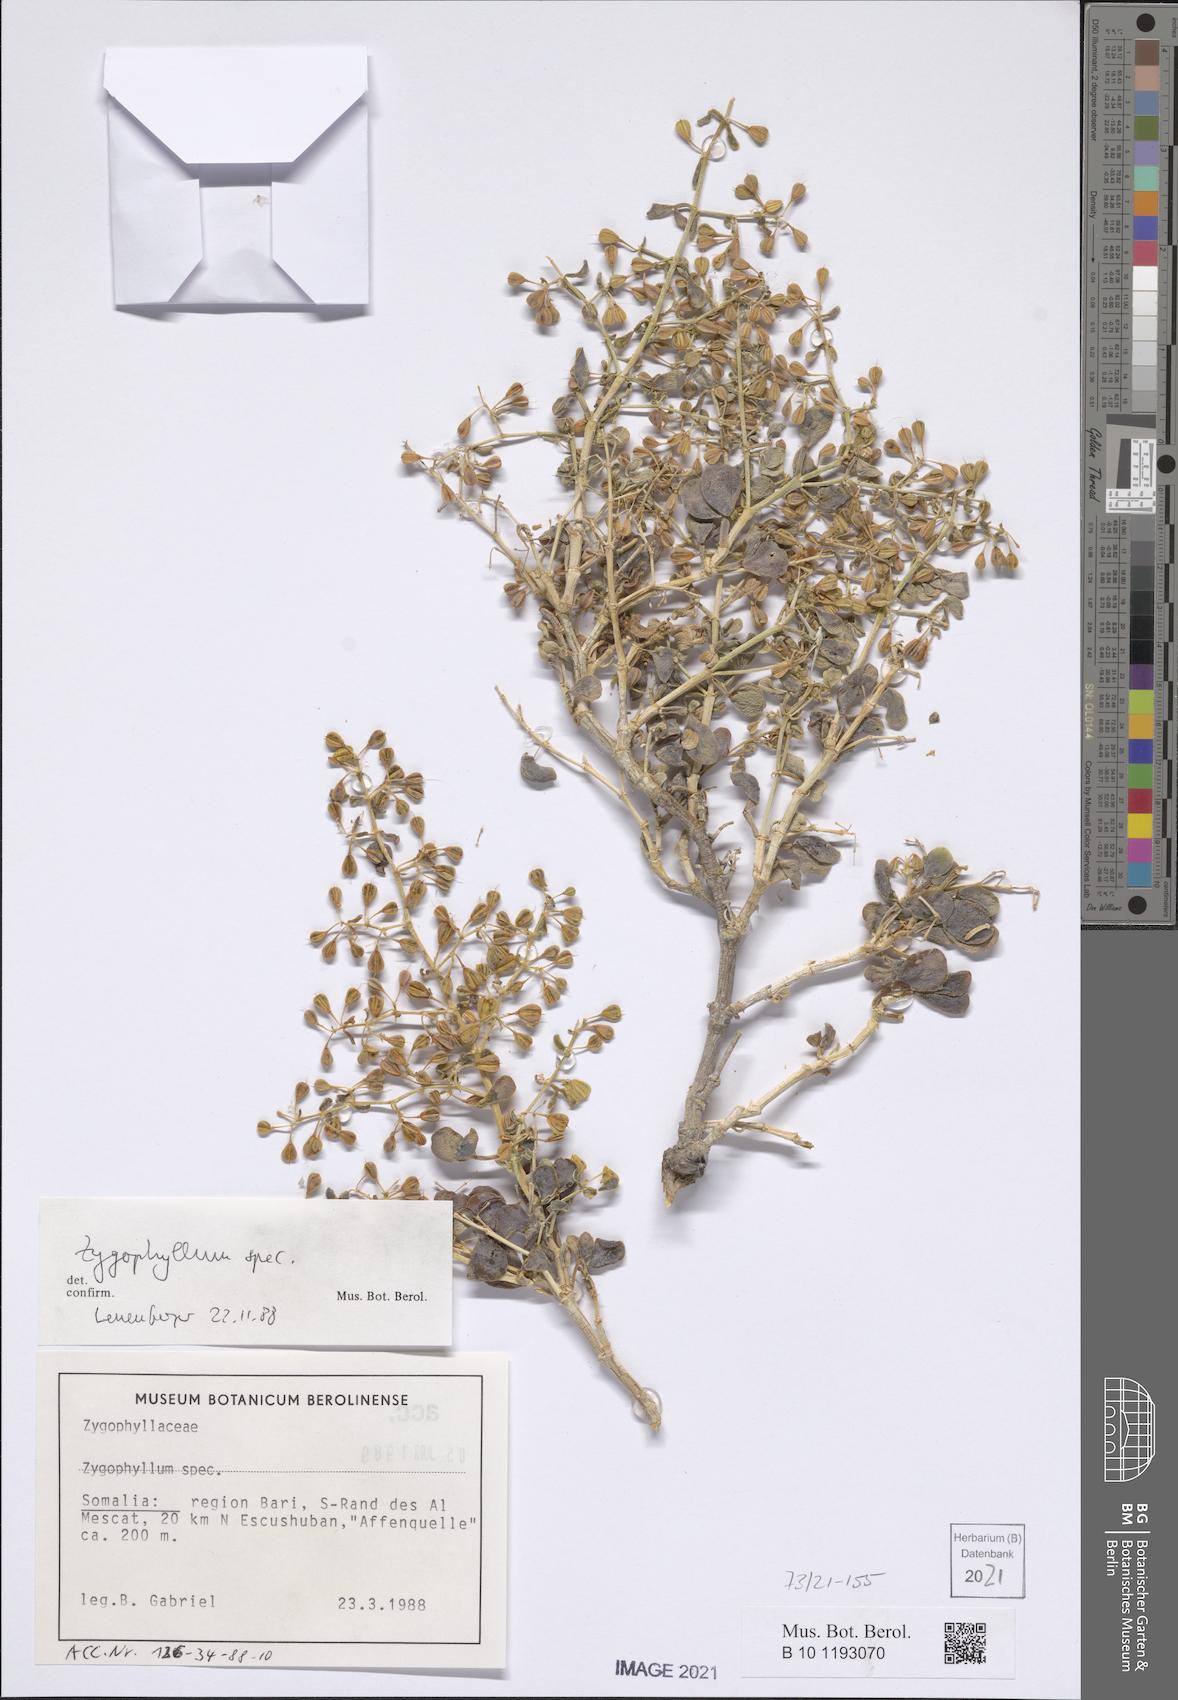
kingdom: Plantae
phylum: Tracheophyta
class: Magnoliopsida
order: Zygophyllales
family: Zygophyllaceae
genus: Zygophyllum
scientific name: Zygophyllum
